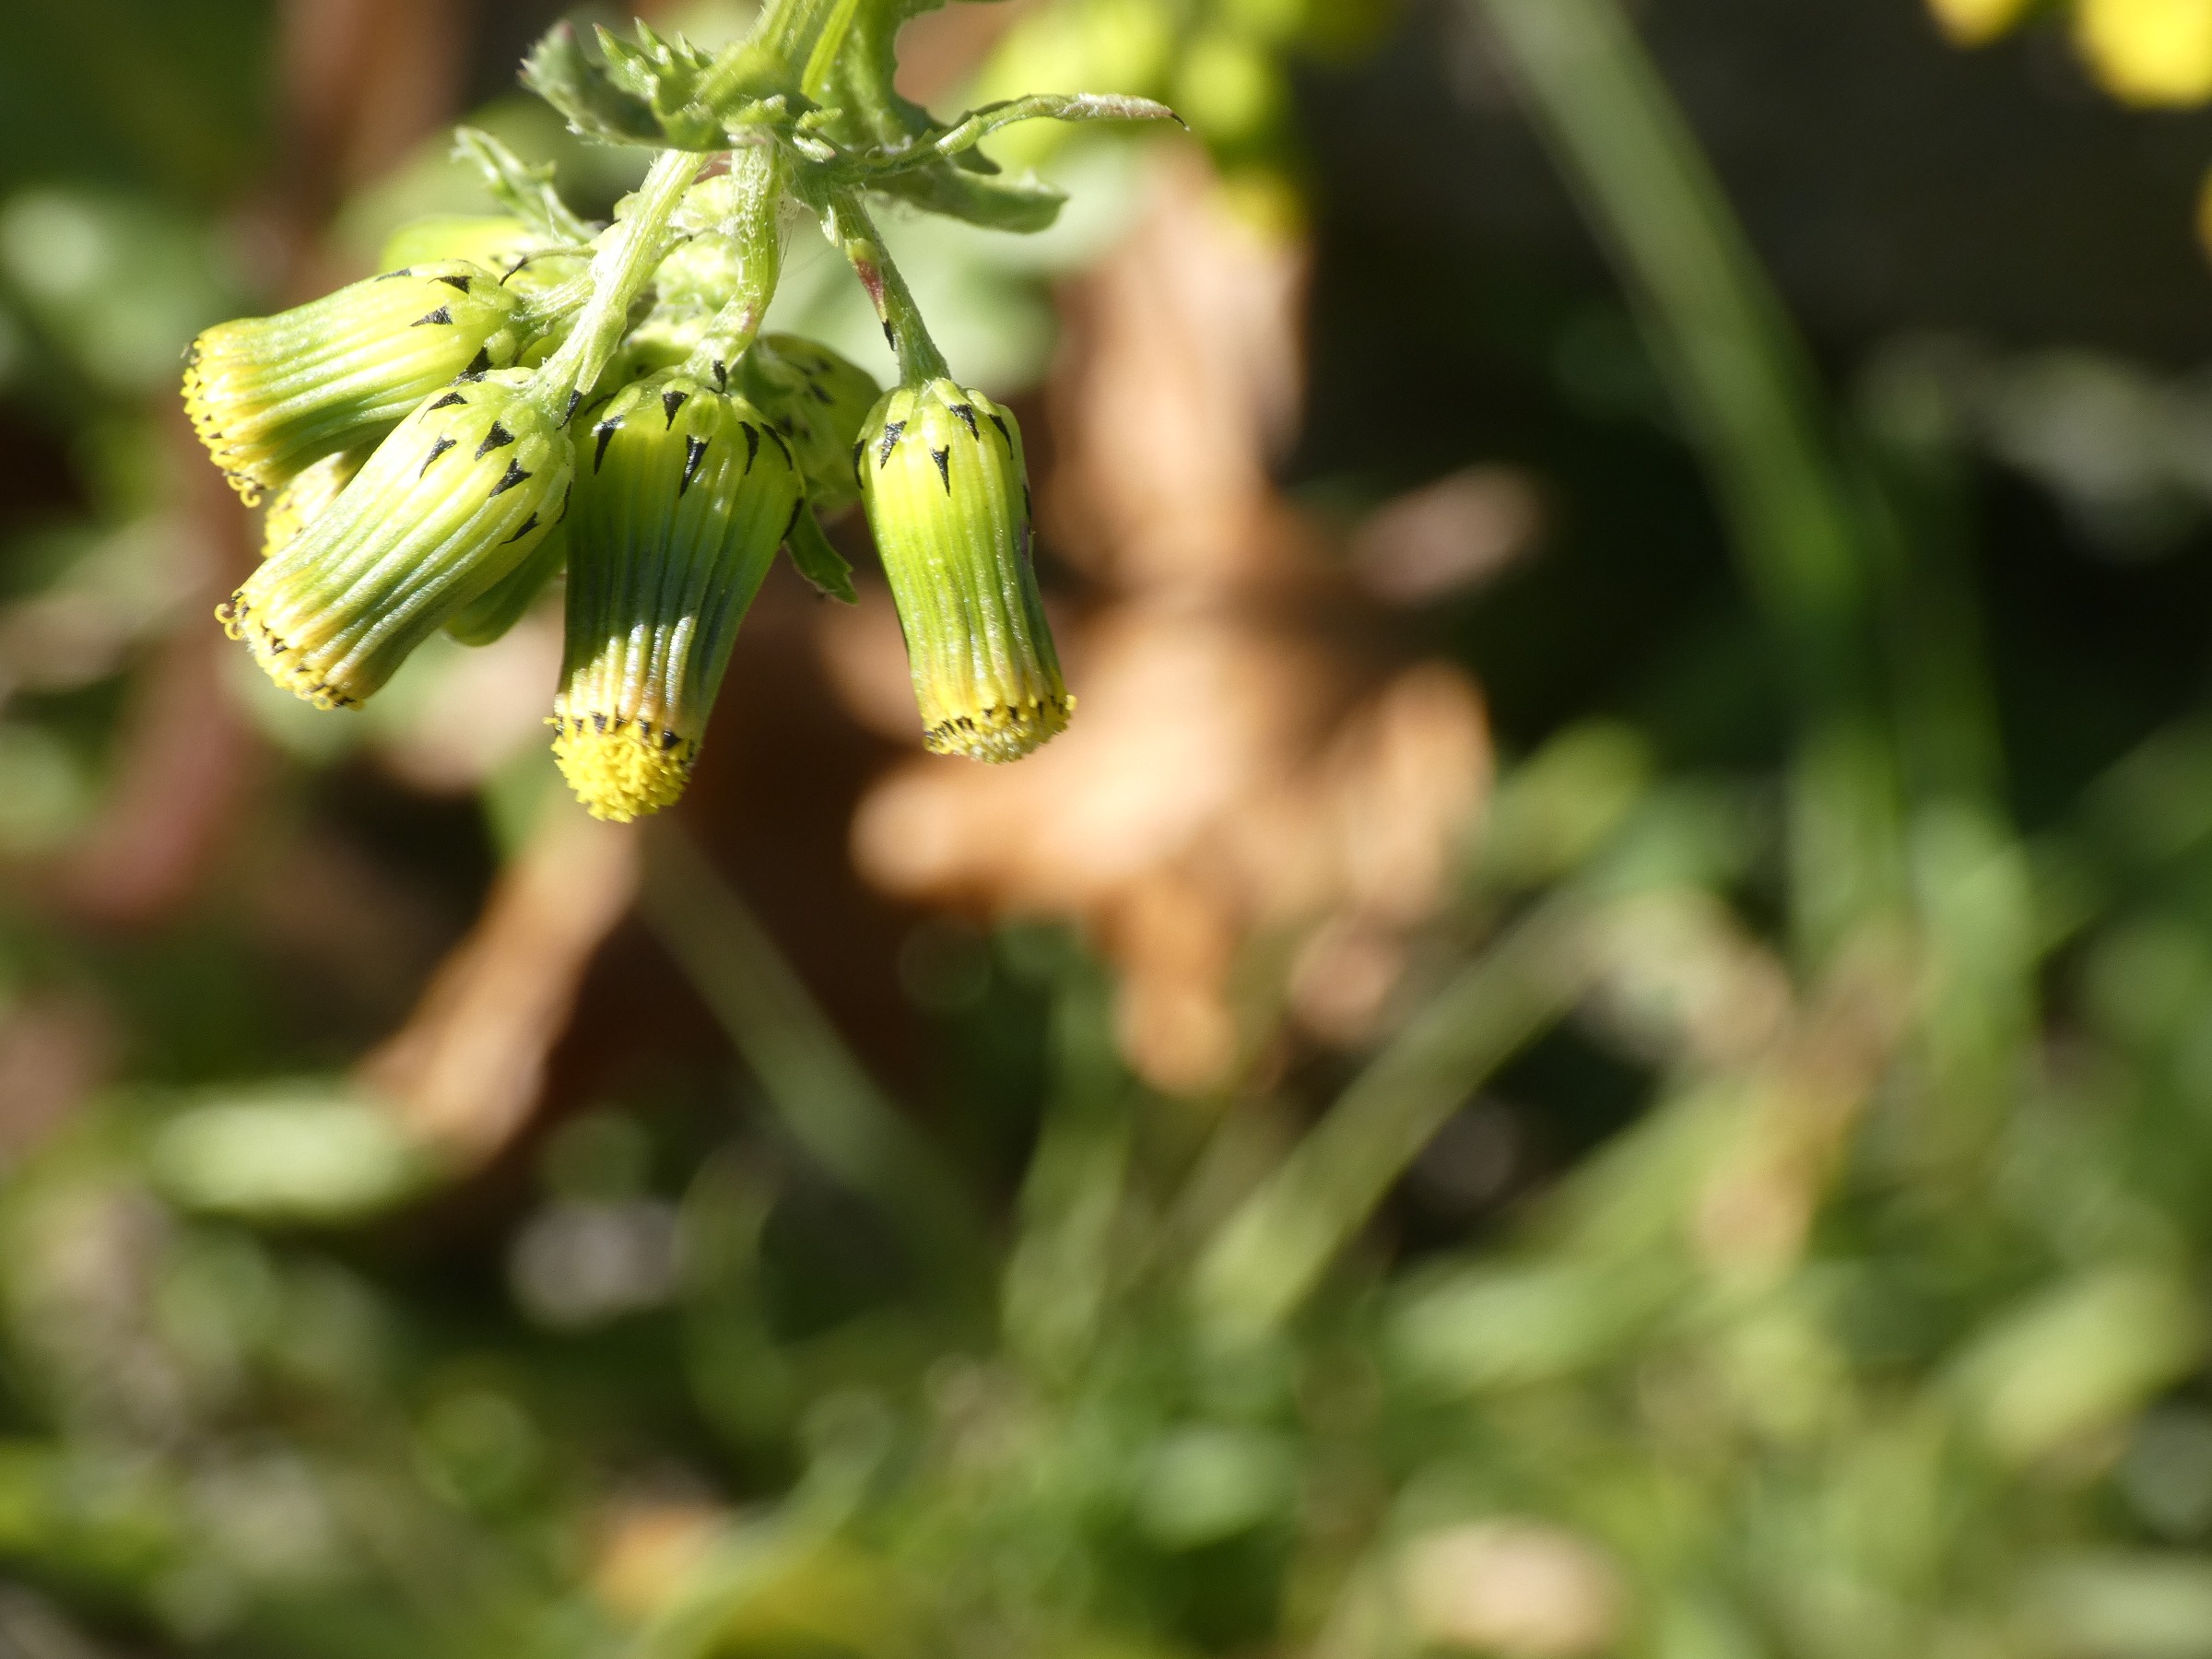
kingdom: Plantae
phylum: Tracheophyta
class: Magnoliopsida
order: Asterales
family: Asteraceae
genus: Senecio
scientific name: Senecio vulgaris
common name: Almindelig brandbæger
